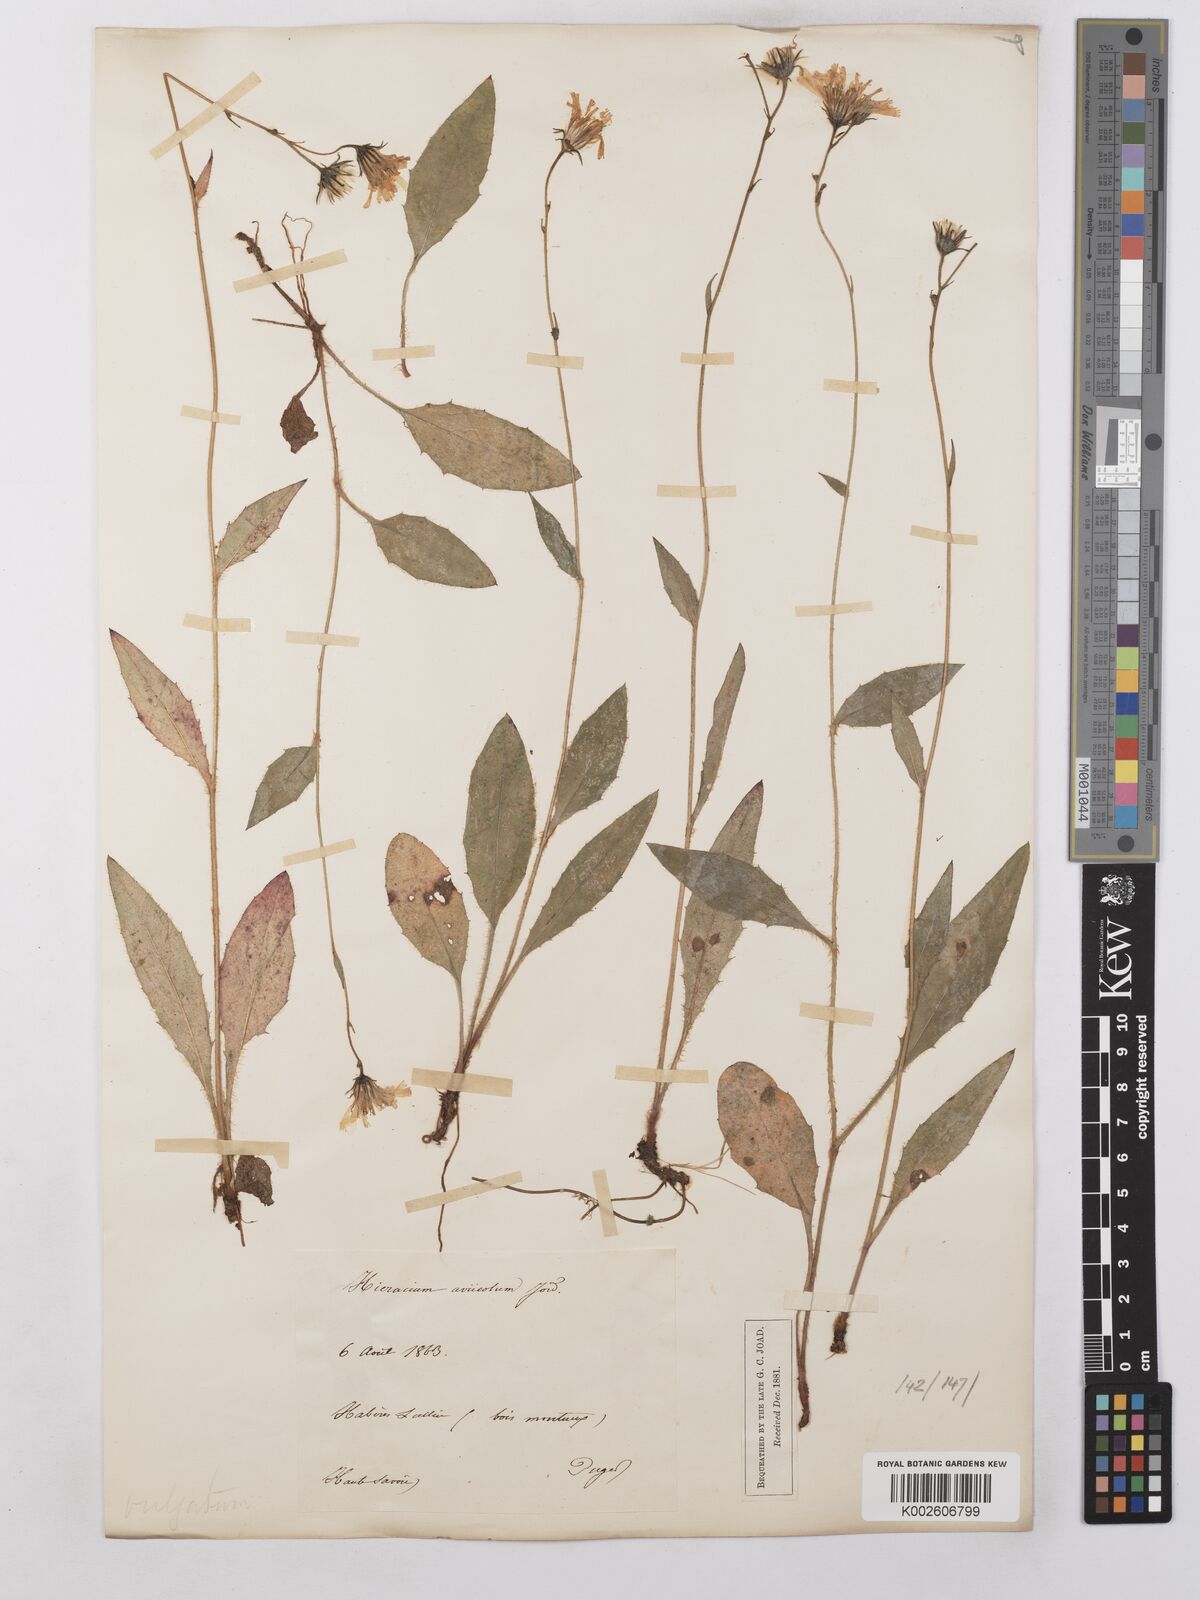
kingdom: Plantae
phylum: Tracheophyta
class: Magnoliopsida
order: Asterales
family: Asteraceae
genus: Hieracium
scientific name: Hieracium lachenalii
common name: Common hawkweed
